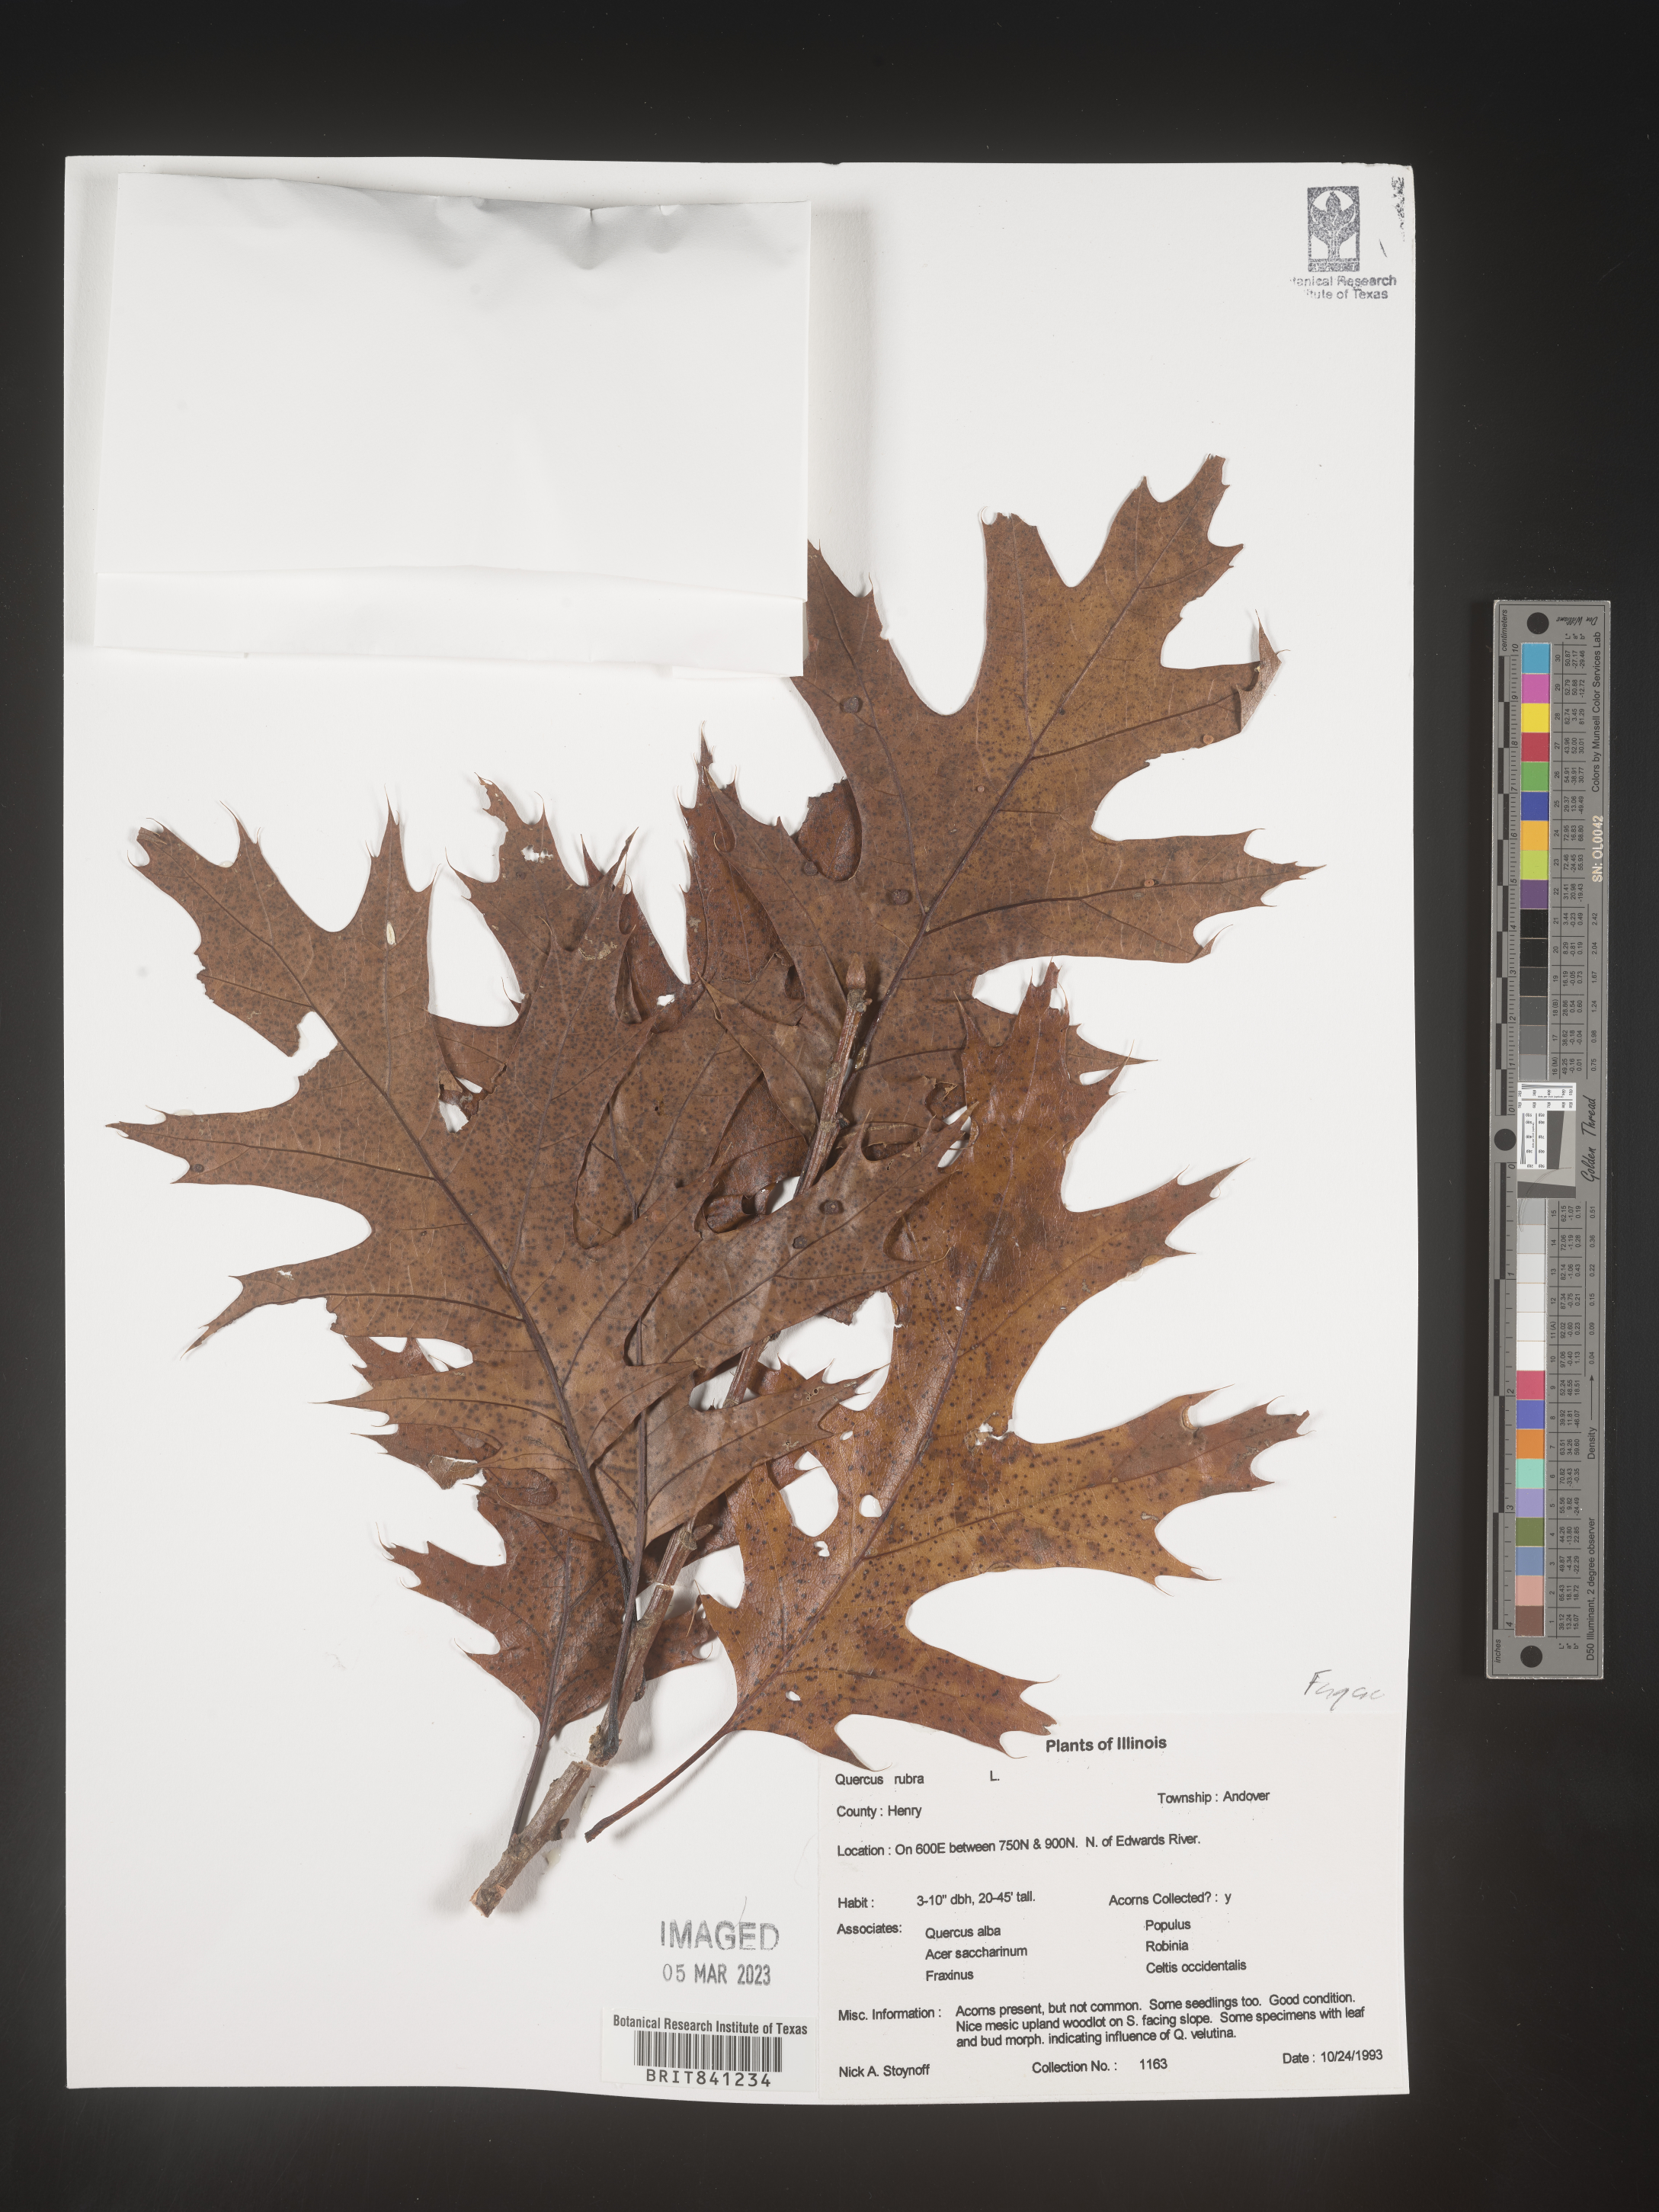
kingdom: Plantae
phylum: Tracheophyta
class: Magnoliopsida
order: Fagales
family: Fagaceae
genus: Quercus
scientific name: Quercus rubra
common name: Red oak
